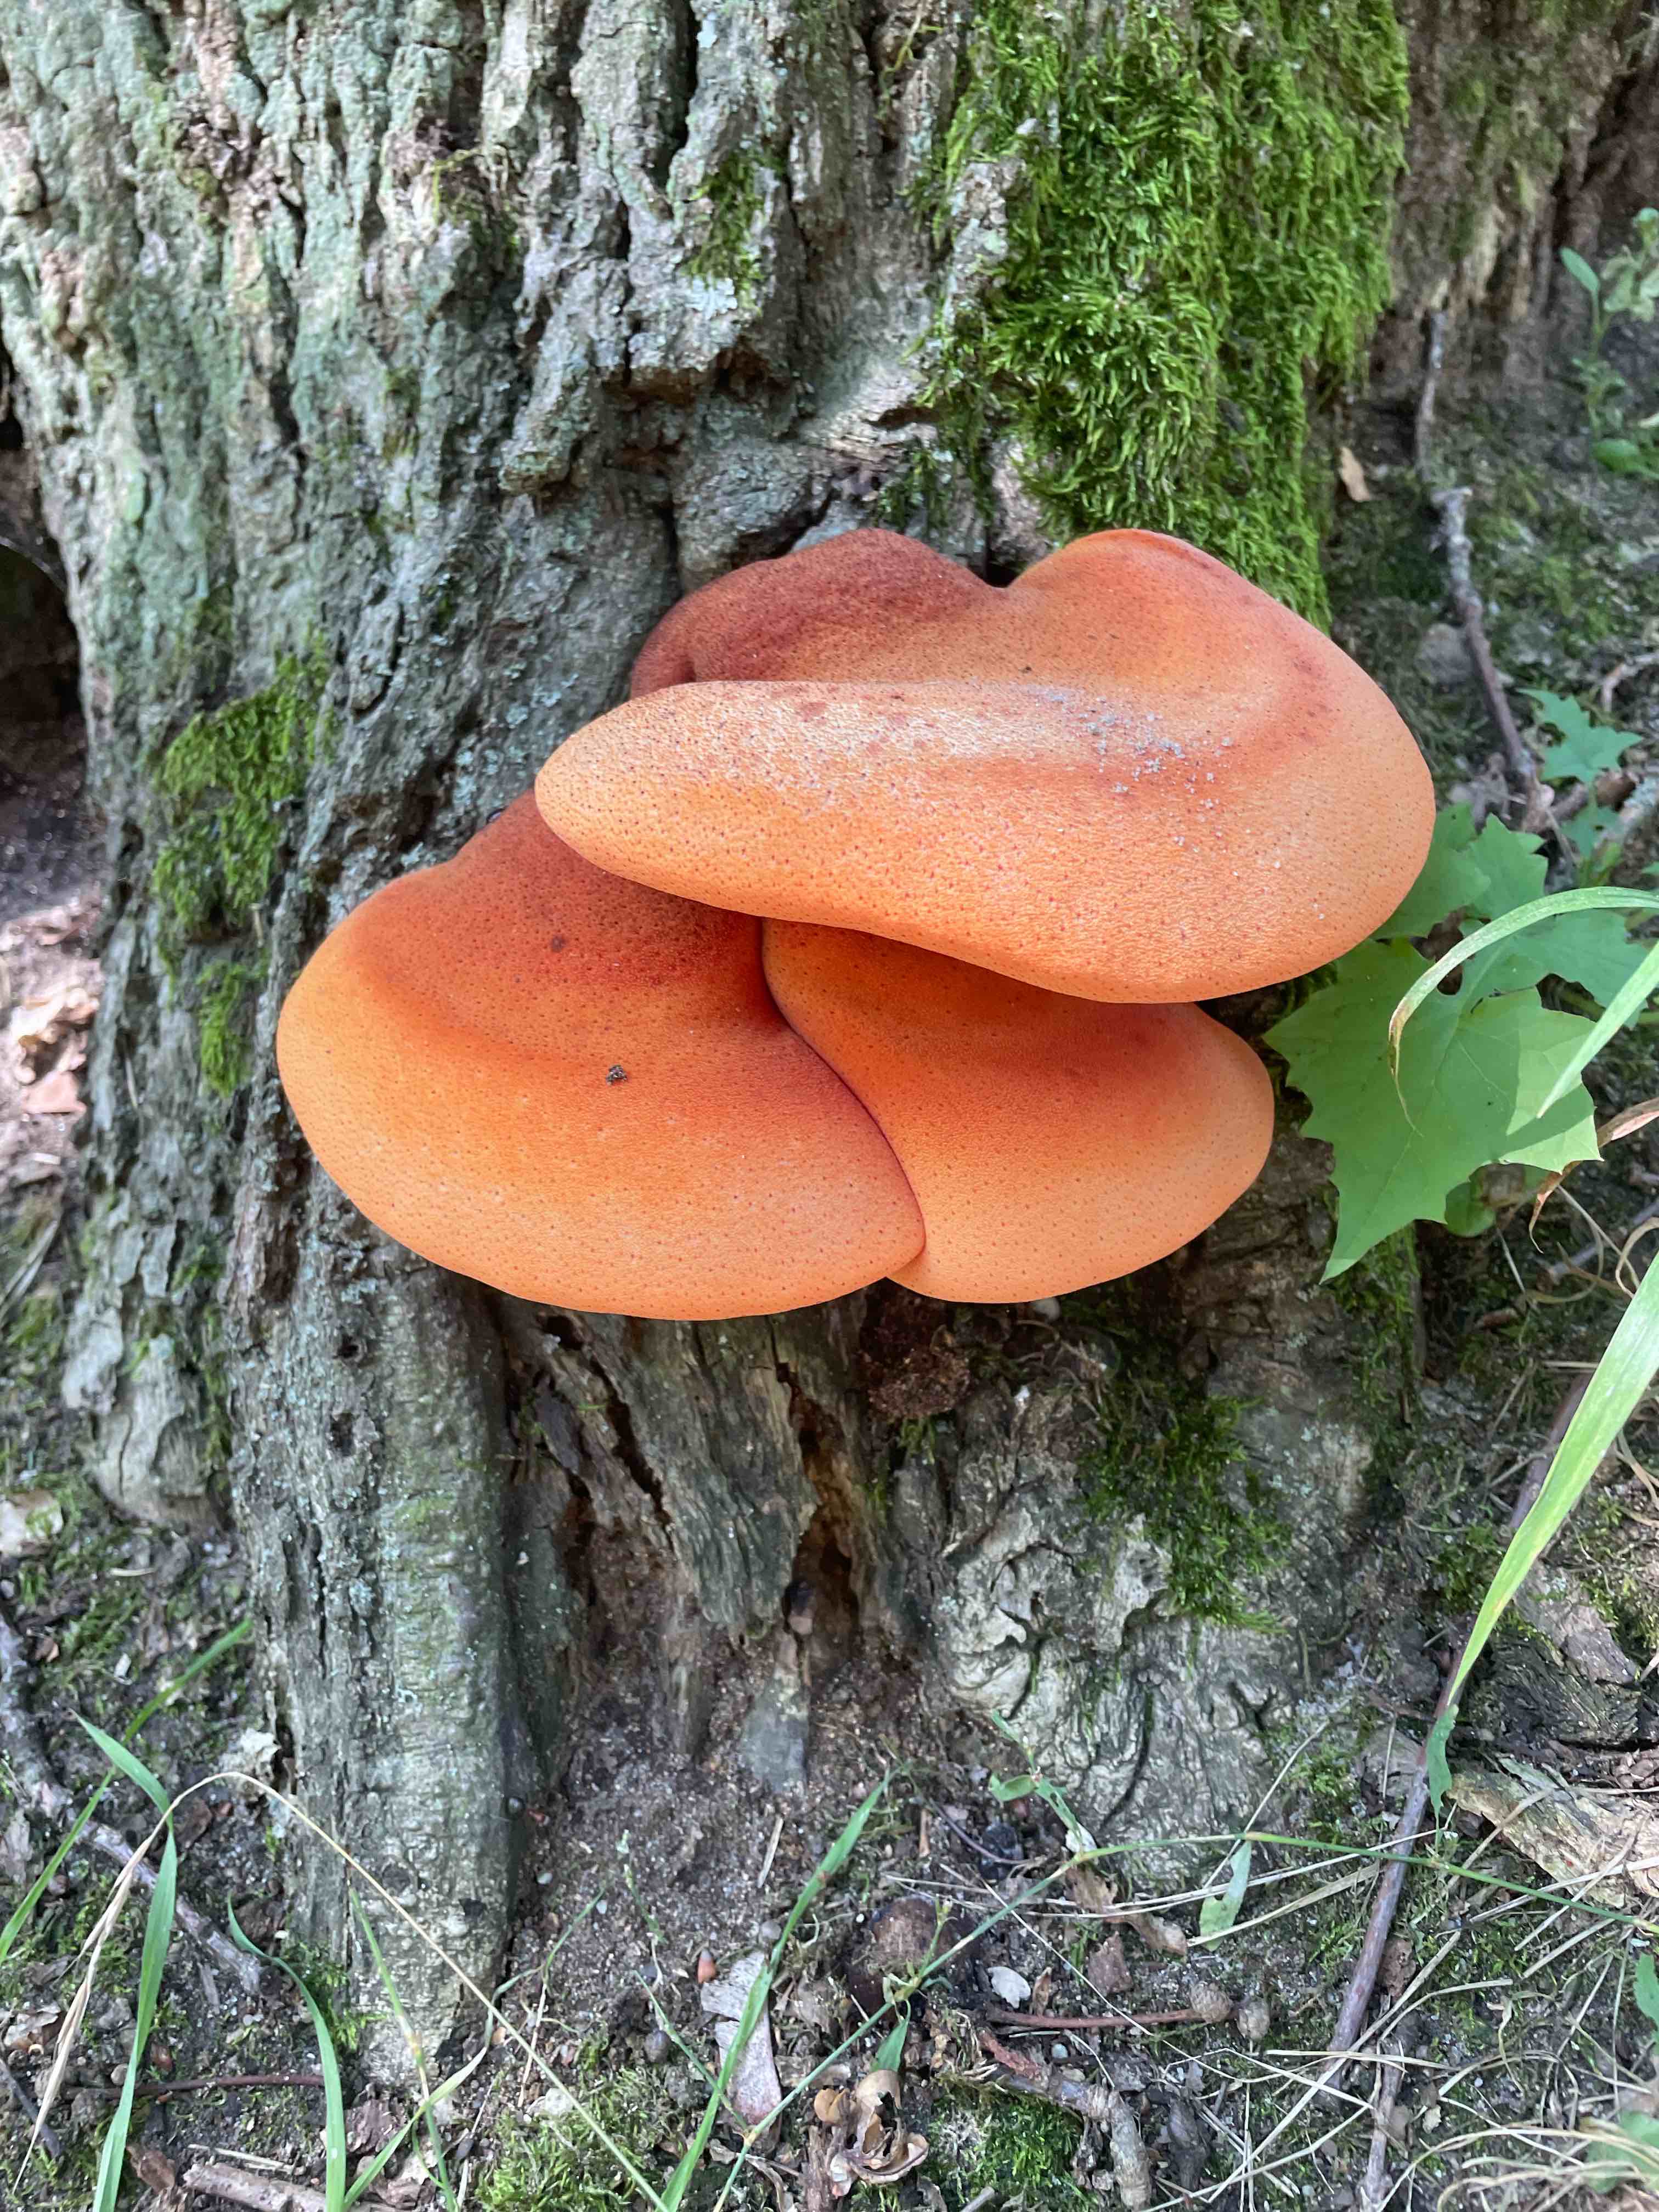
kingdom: Fungi
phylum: Basidiomycota
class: Agaricomycetes
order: Agaricales
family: Fistulinaceae
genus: Fistulina
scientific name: Fistulina hepatica
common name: oksetunge
